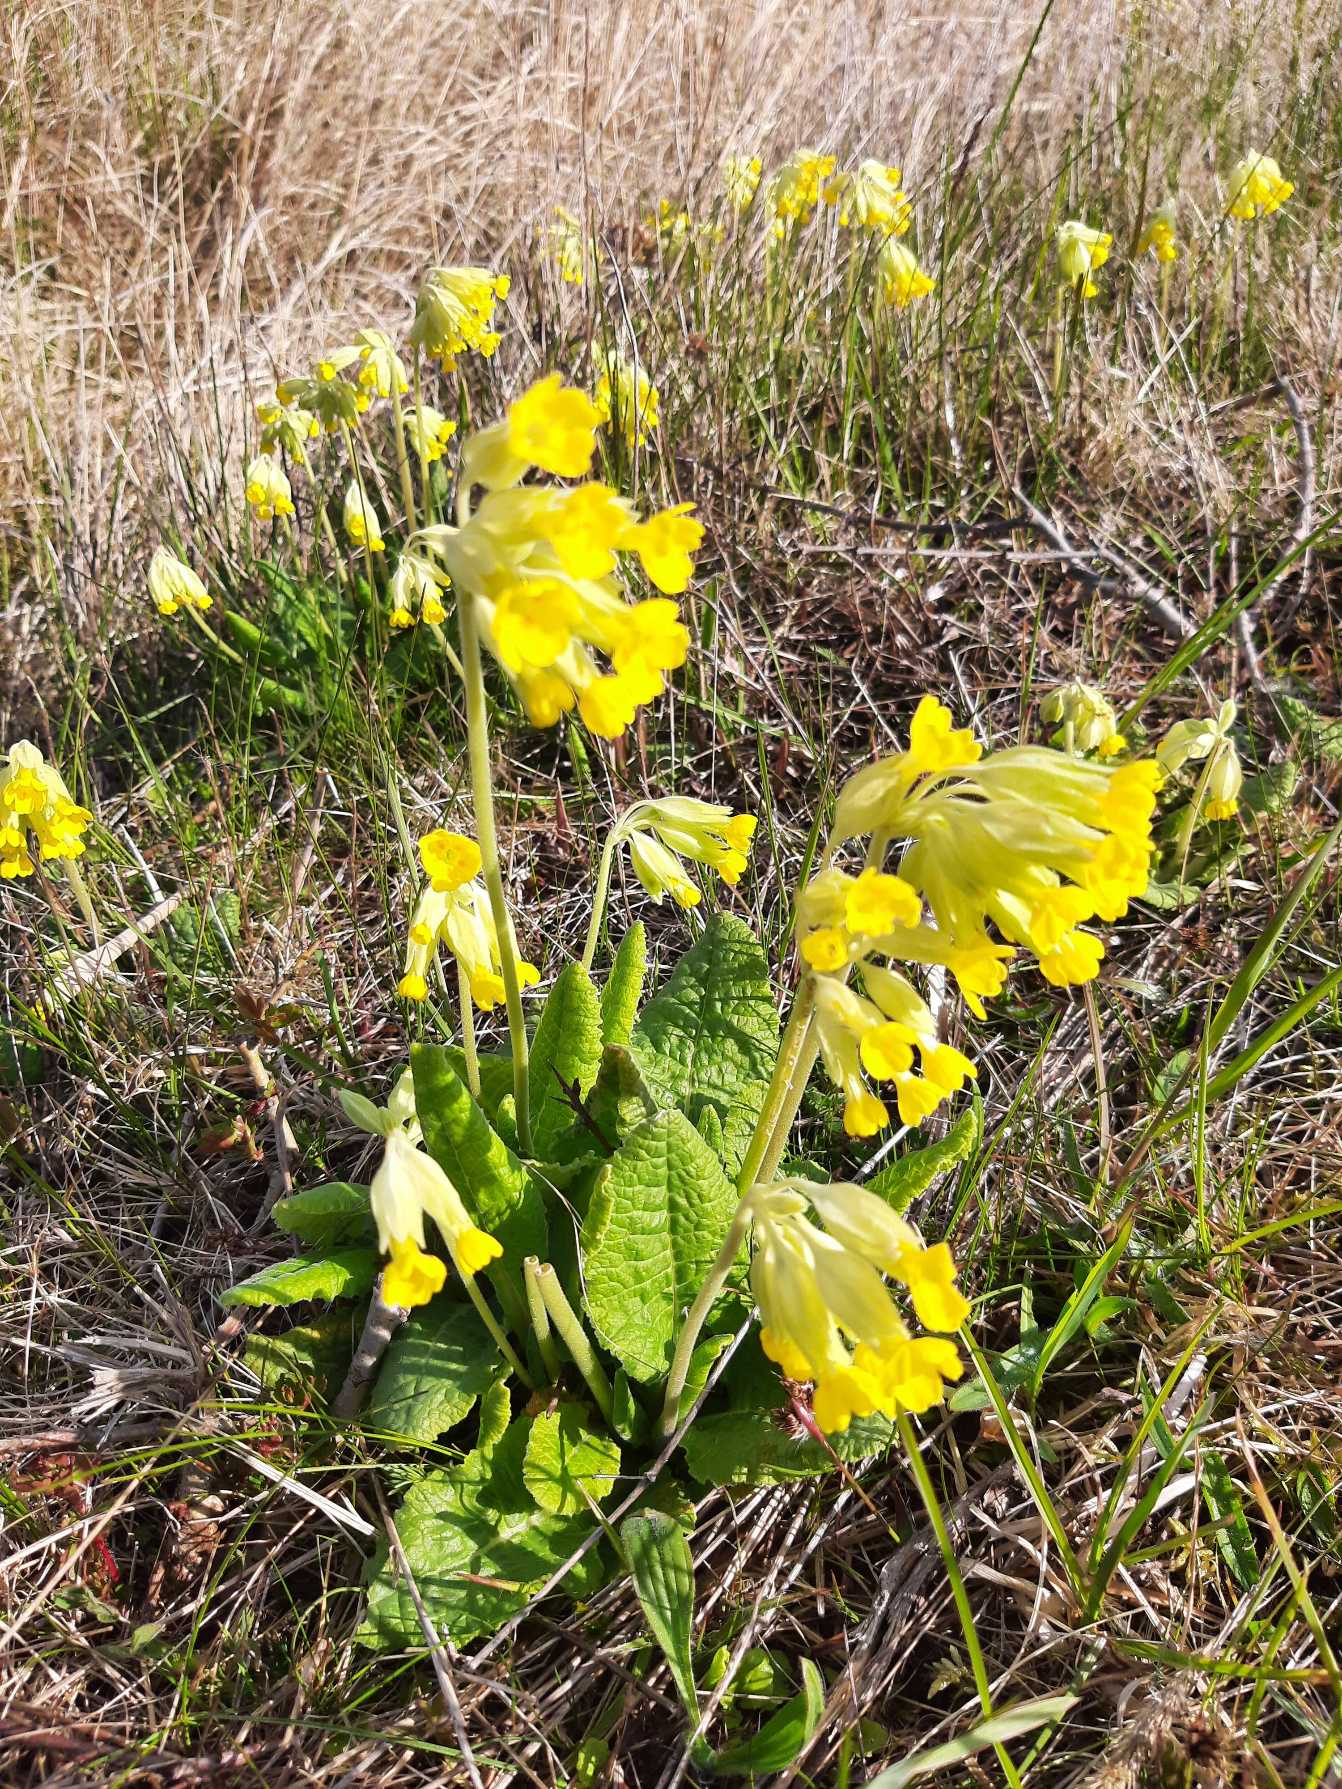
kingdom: Plantae
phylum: Tracheophyta
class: Magnoliopsida
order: Ericales
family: Primulaceae
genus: Primula
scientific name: Primula veris
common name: Hulkravet kodriver
